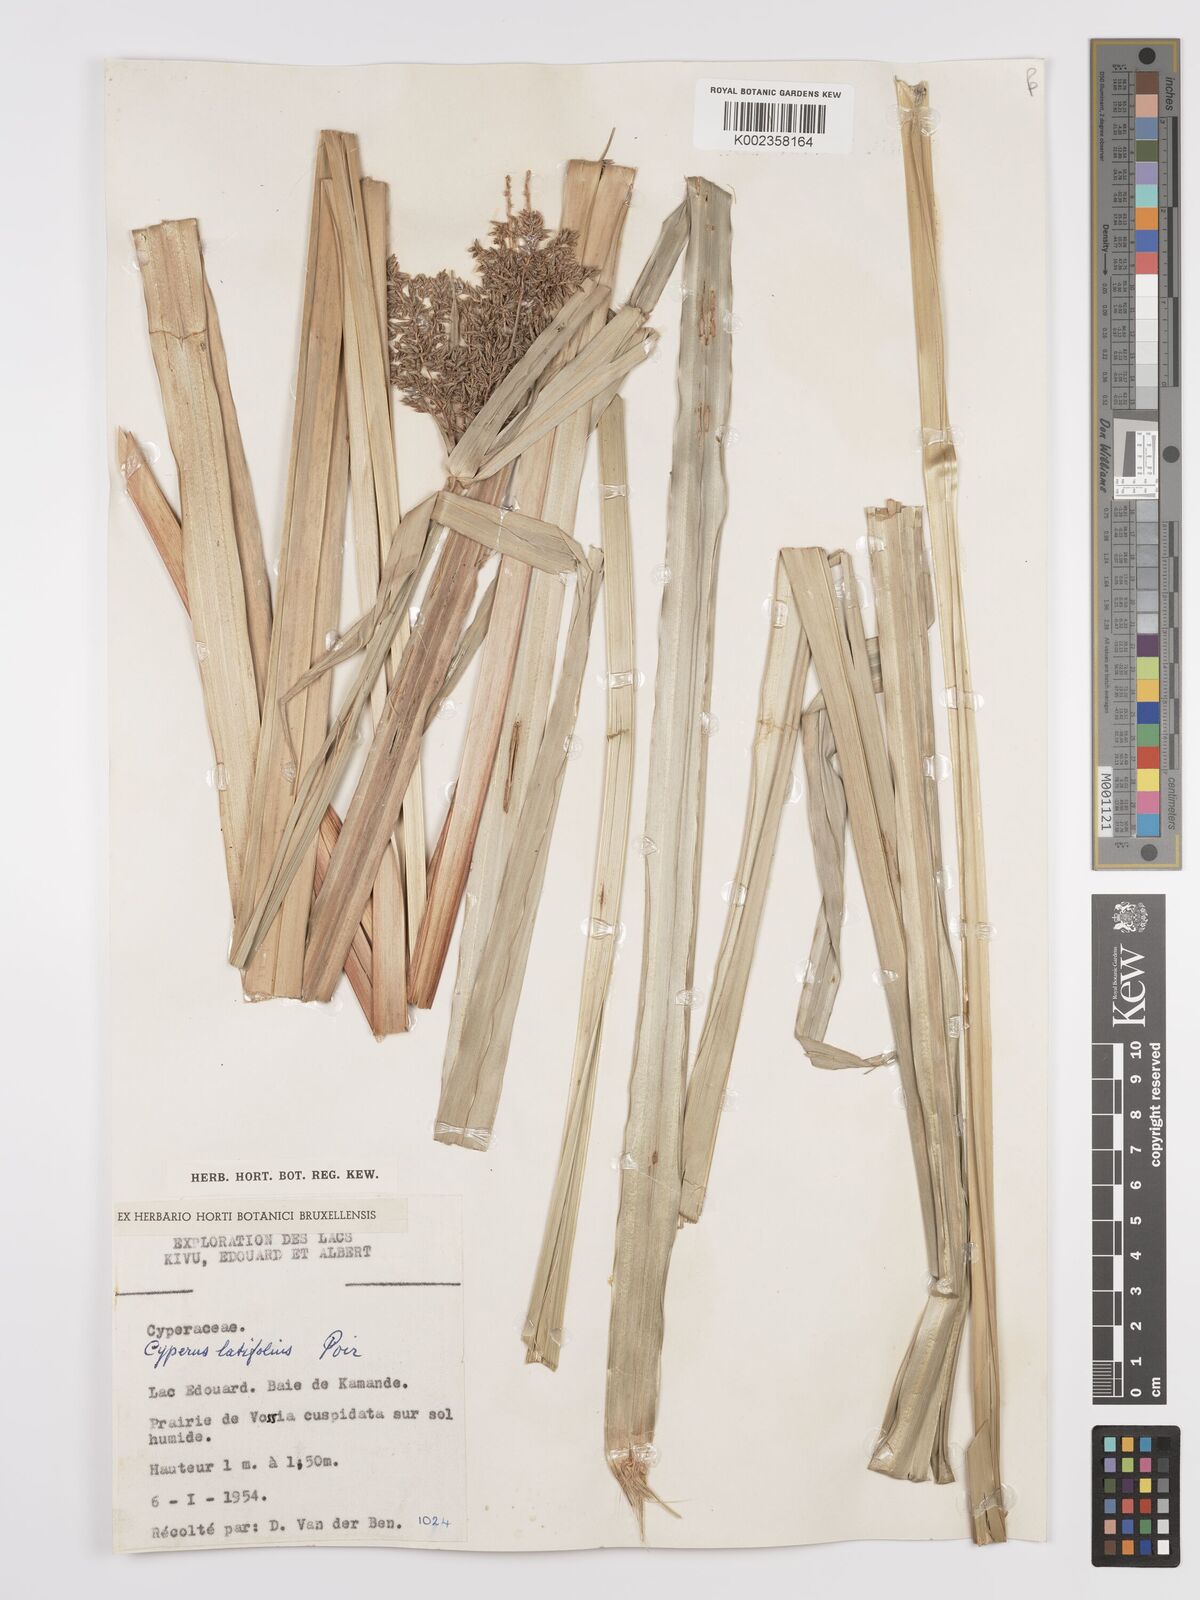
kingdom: Plantae
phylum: Tracheophyta
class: Liliopsida
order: Poales
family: Cyperaceae
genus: Cyperus
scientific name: Cyperus latifolius
